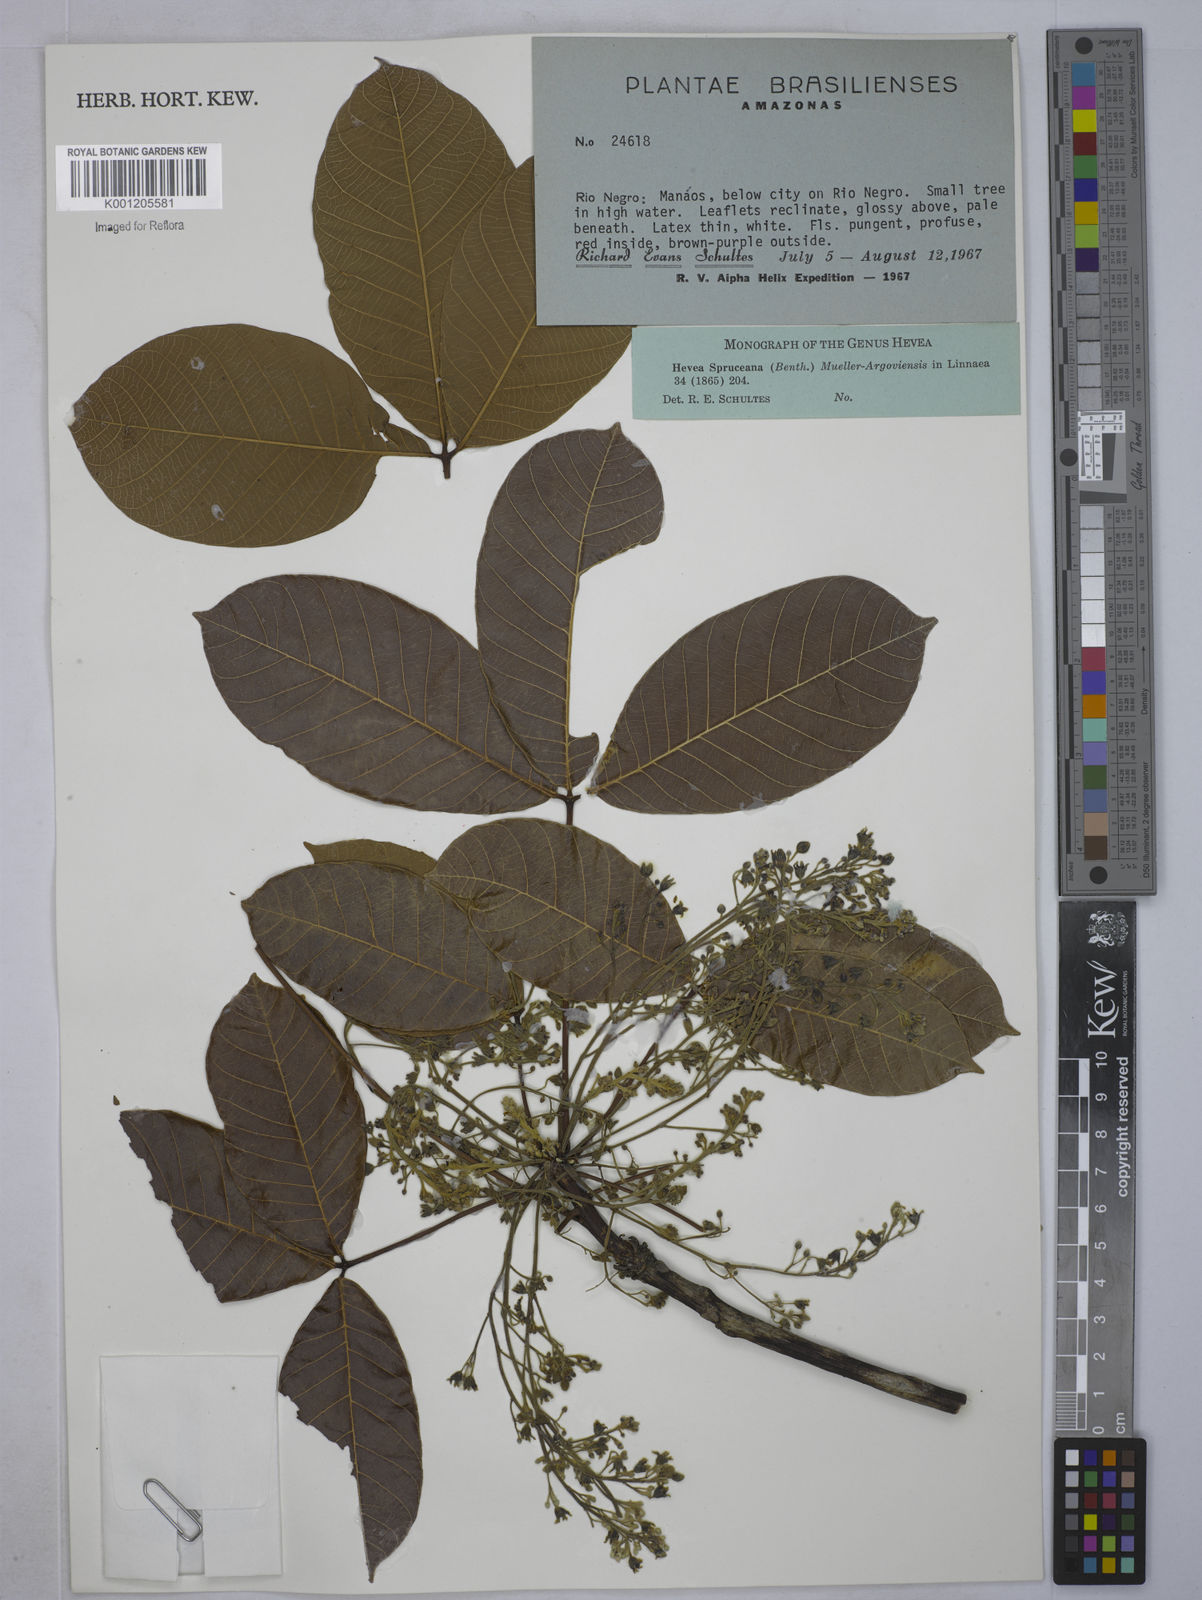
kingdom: Plantae
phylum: Tracheophyta
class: Magnoliopsida
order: Malpighiales
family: Euphorbiaceae
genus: Hevea
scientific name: Hevea
